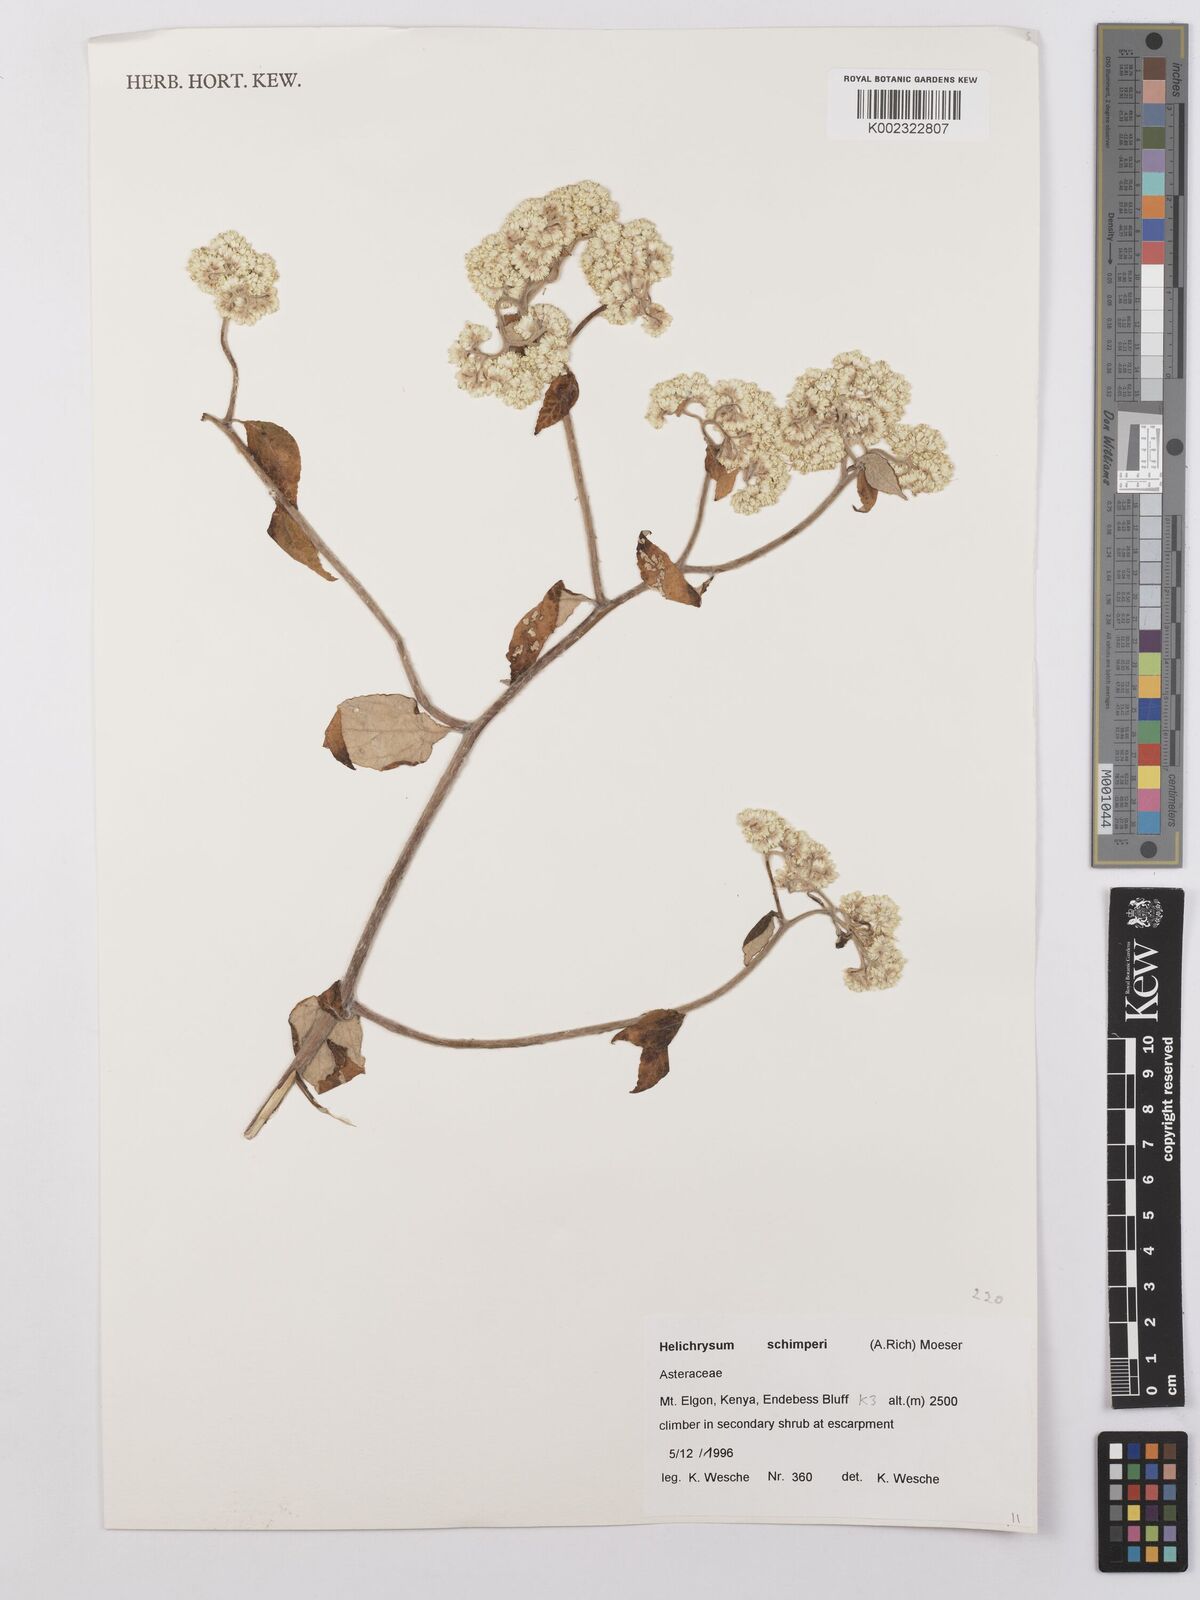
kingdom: Plantae
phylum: Tracheophyta
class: Magnoliopsida
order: Asterales
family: Asteraceae
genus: Helichrysum
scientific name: Helichrysum schimperi
